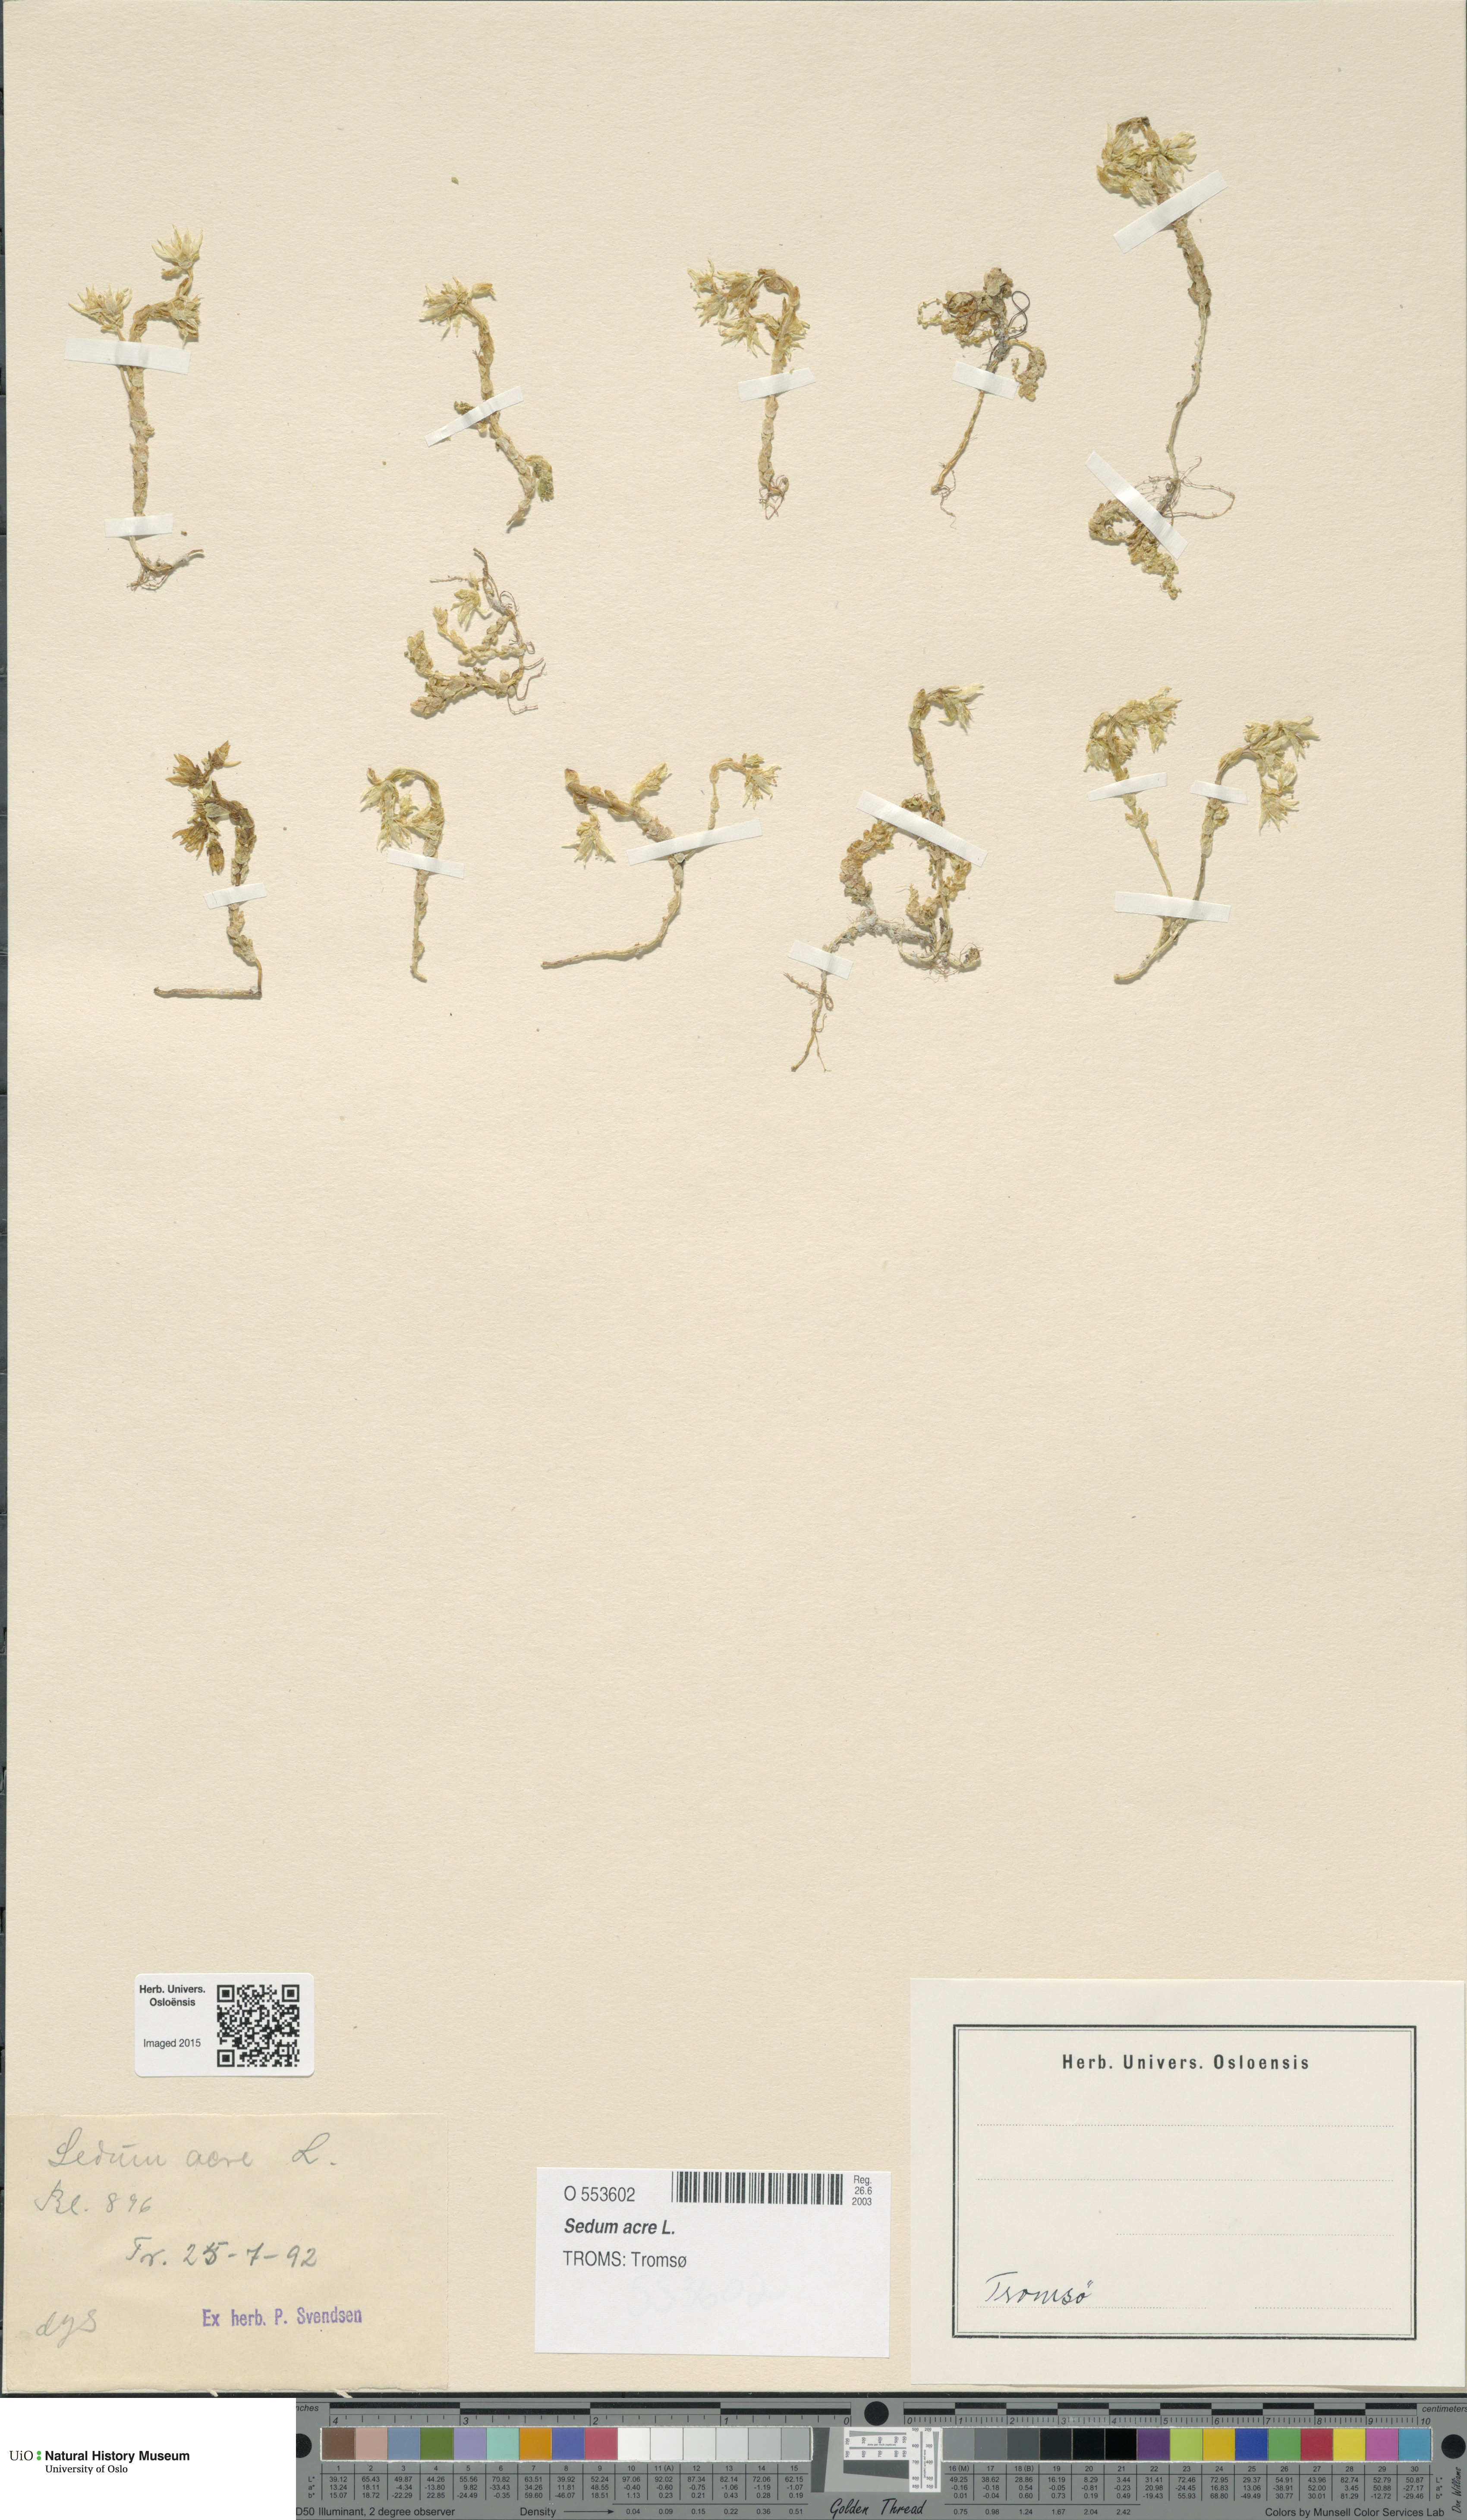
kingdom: Plantae
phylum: Tracheophyta
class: Magnoliopsida
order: Saxifragales
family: Crassulaceae
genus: Sedum
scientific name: Sedum acre
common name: Biting stonecrop
